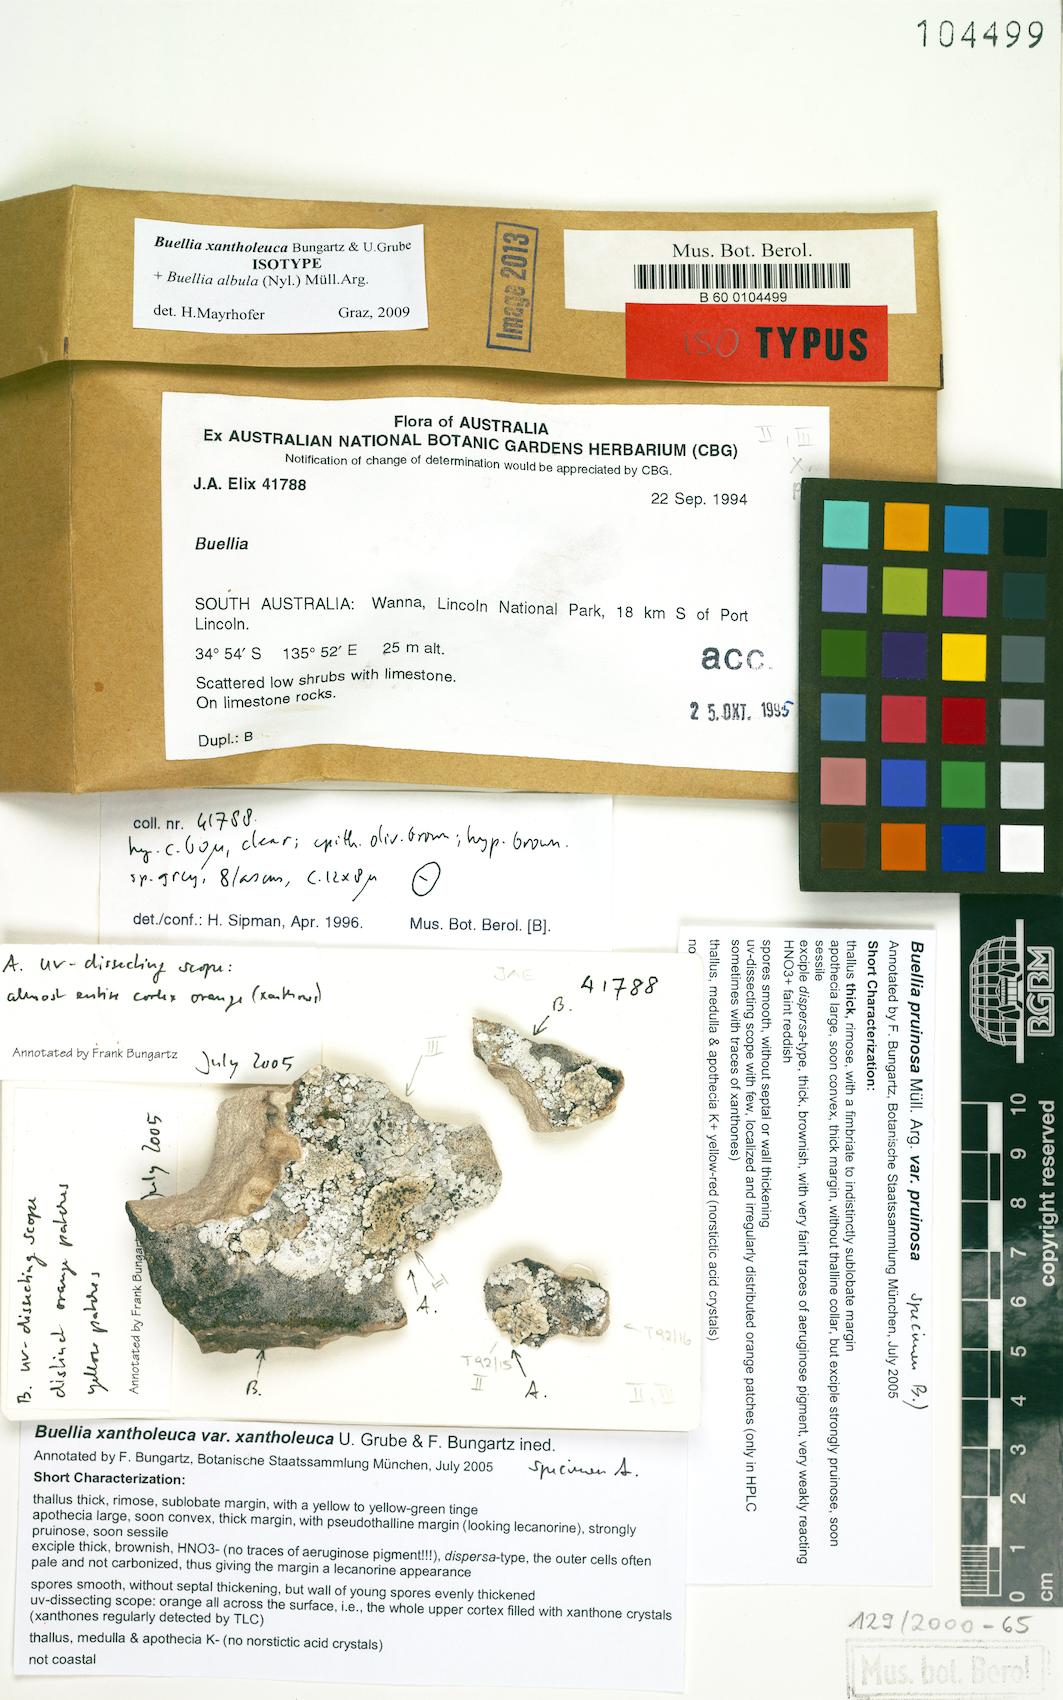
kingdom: Fungi
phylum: Ascomycota
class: Lecanoromycetes
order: Caliciales
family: Caliciaceae
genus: Buellia
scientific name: Buellia xantholeuca
